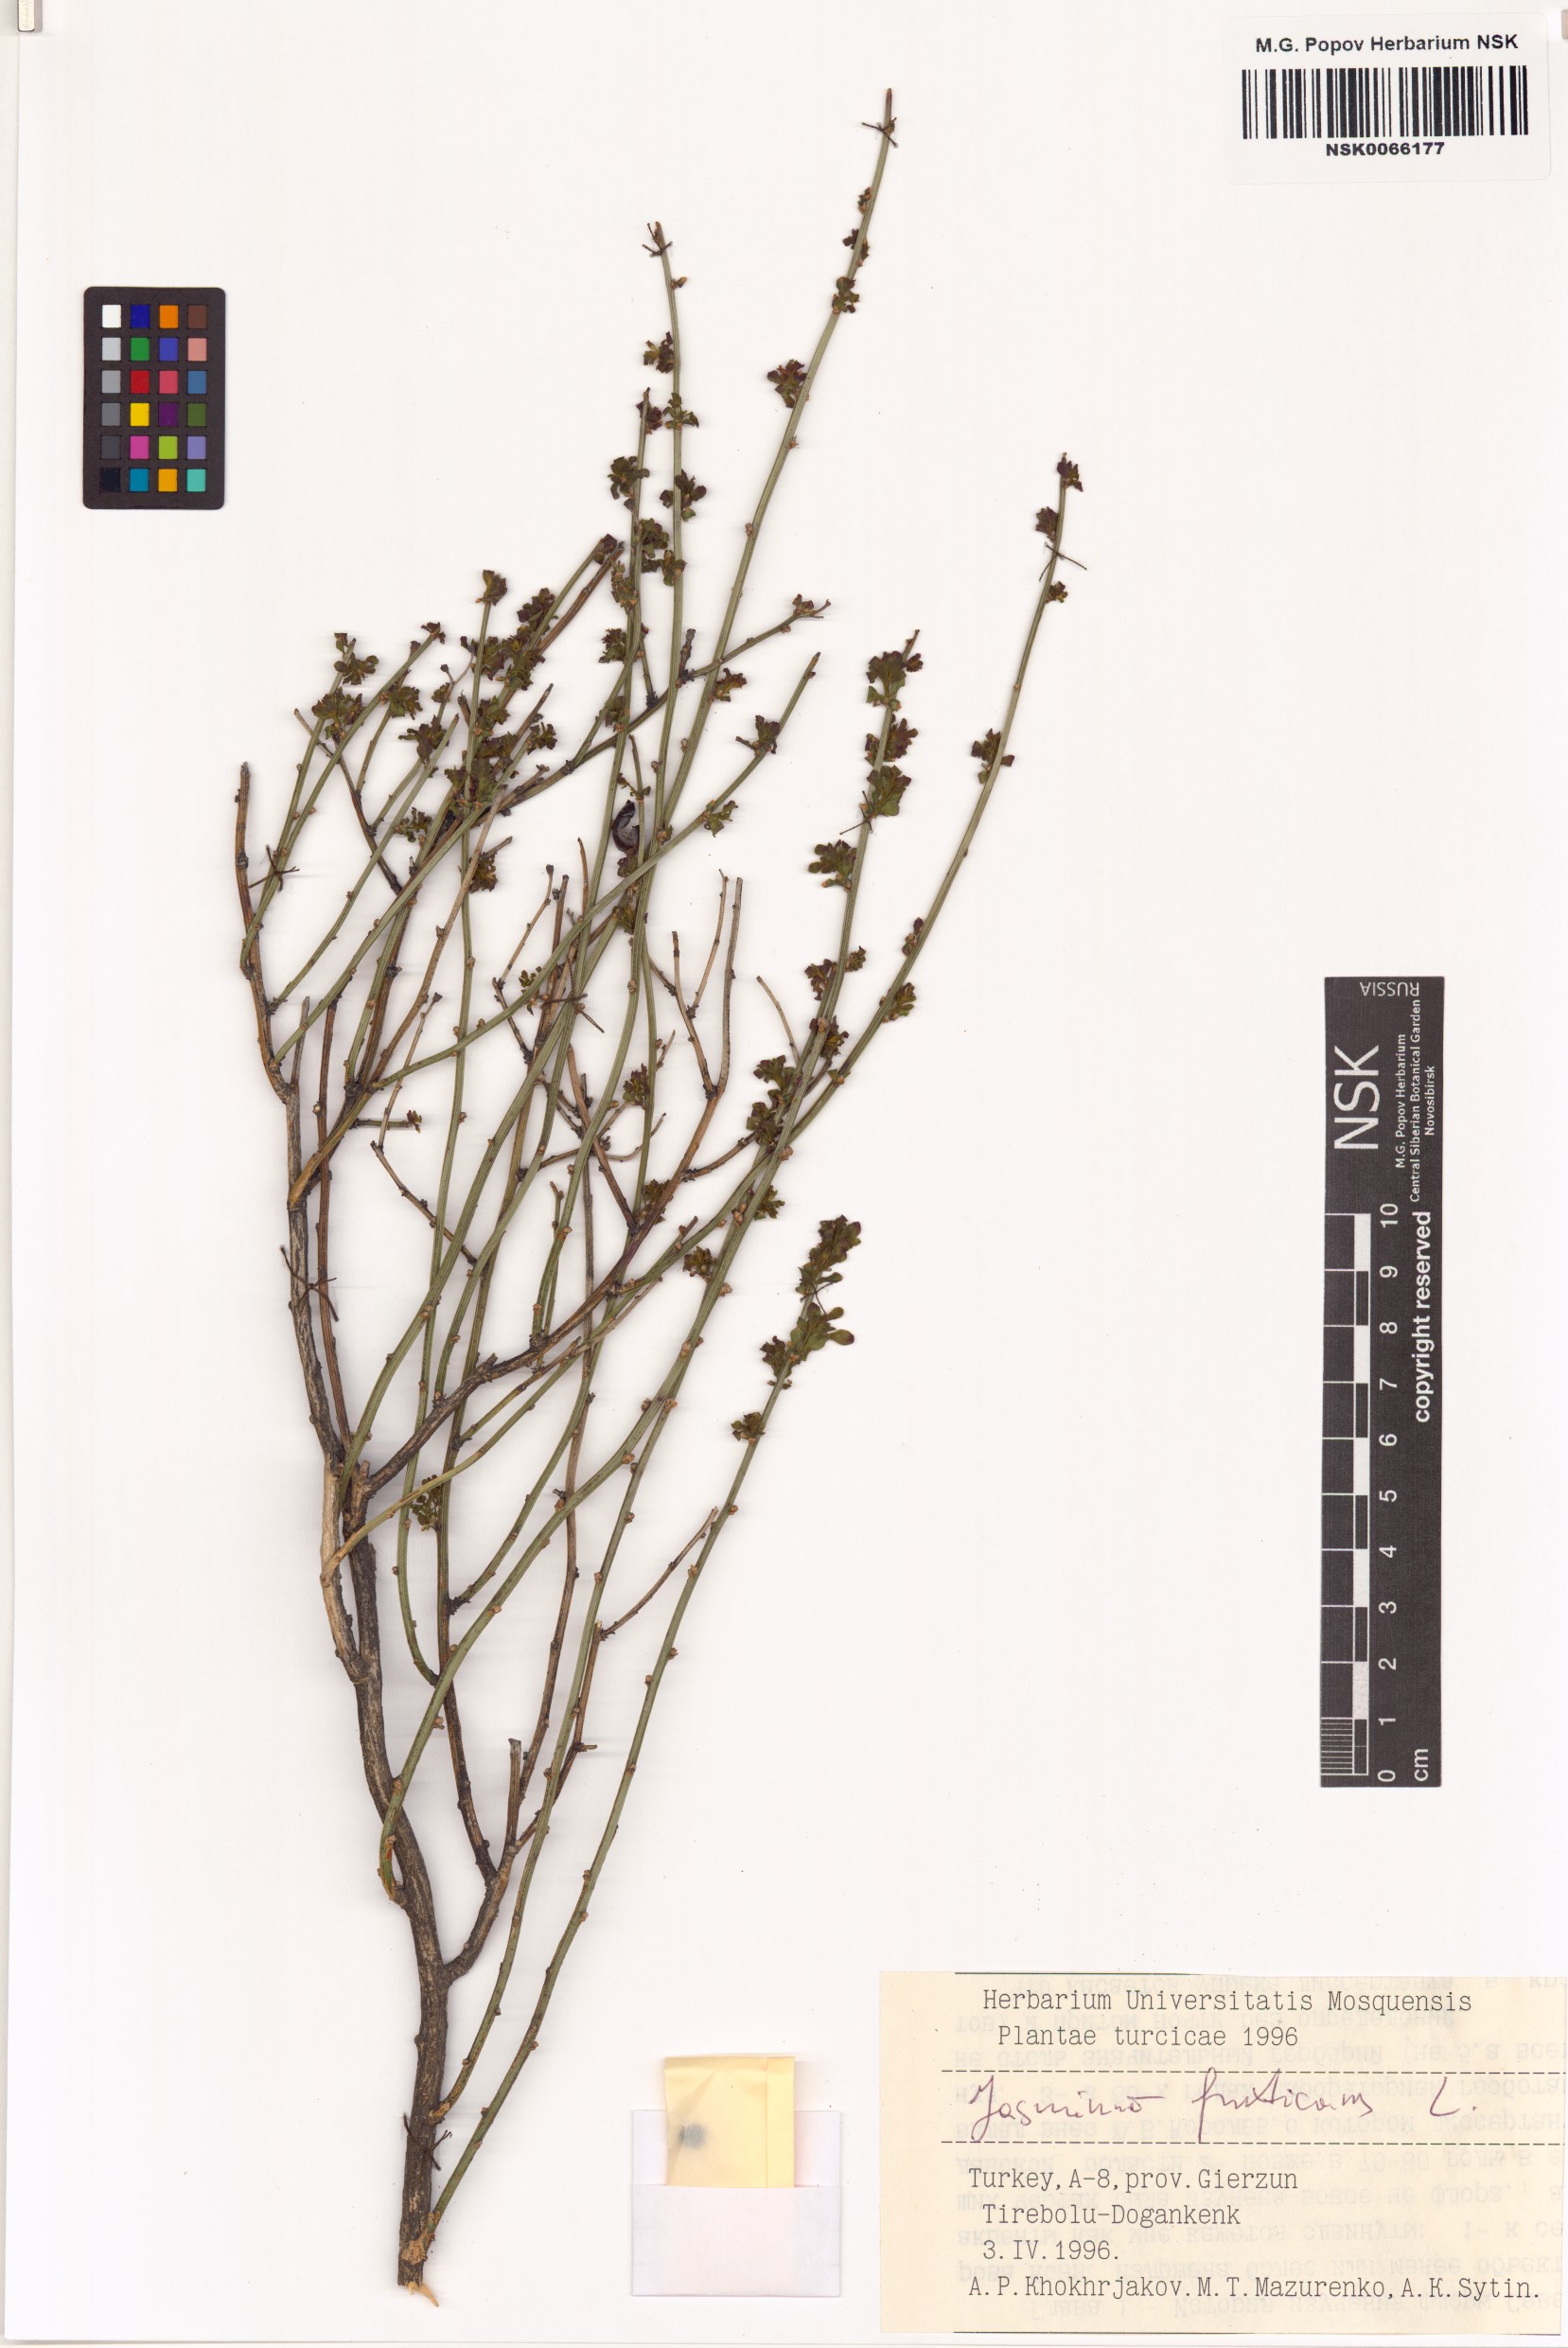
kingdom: Plantae
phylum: Tracheophyta
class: Magnoliopsida
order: Lamiales
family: Oleaceae
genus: Chrysojasminum
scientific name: Chrysojasminum fruticans
